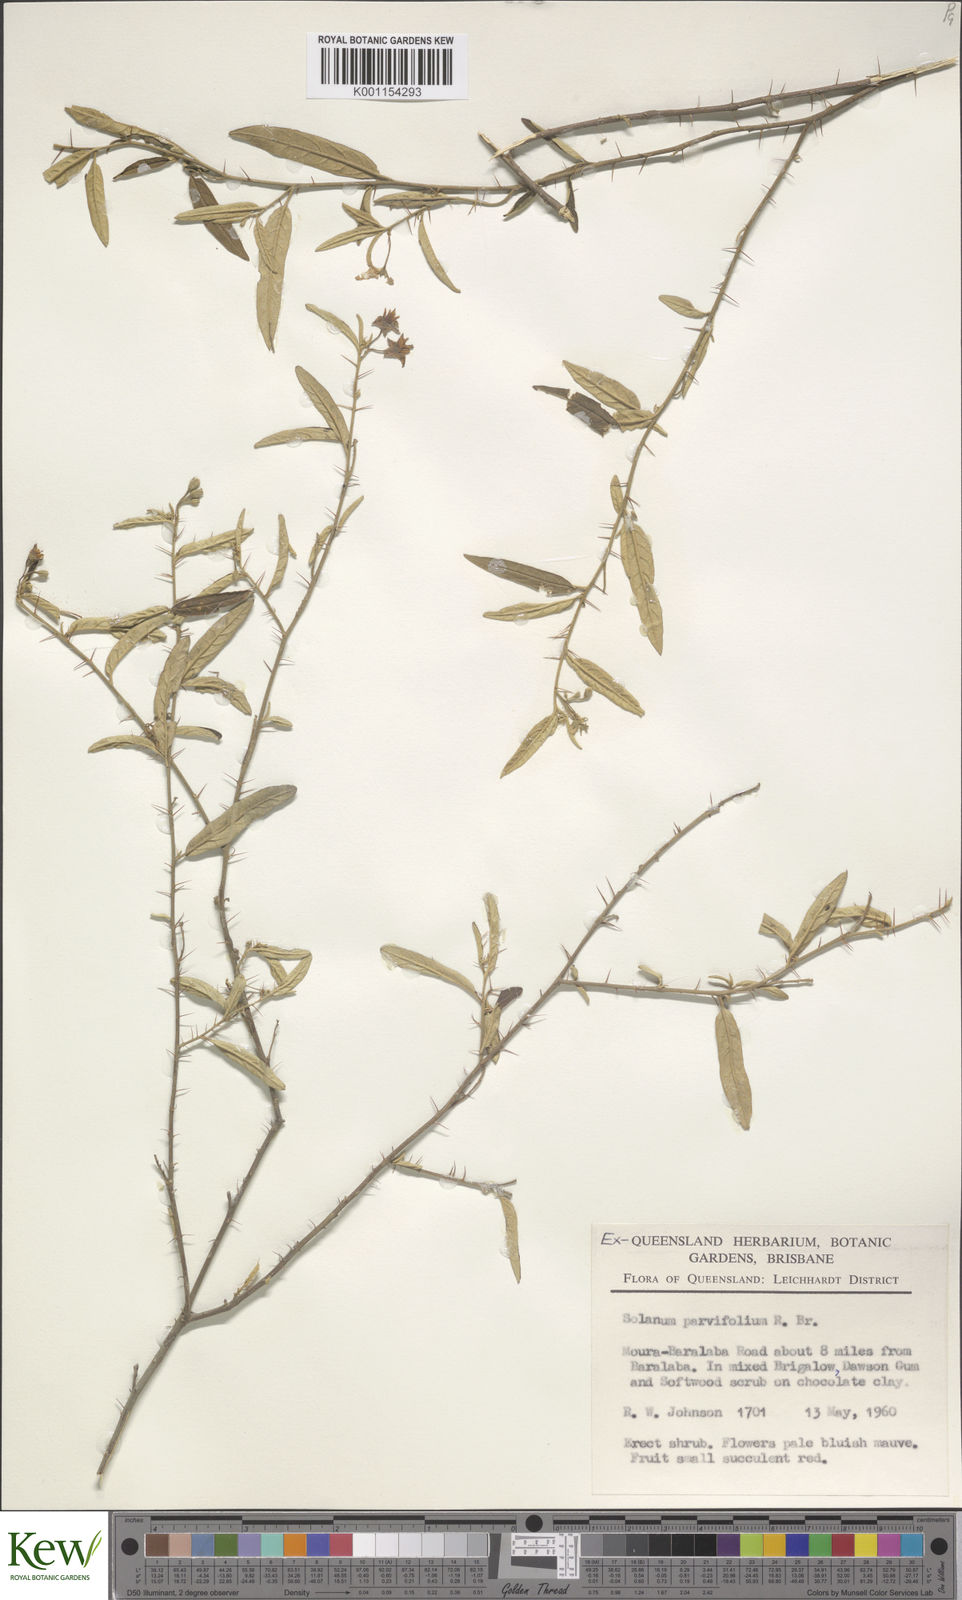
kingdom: Plantae
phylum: Tracheophyta
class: Magnoliopsida
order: Solanales
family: Solanaceae
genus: Solanum
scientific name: Solanum parvifolium
